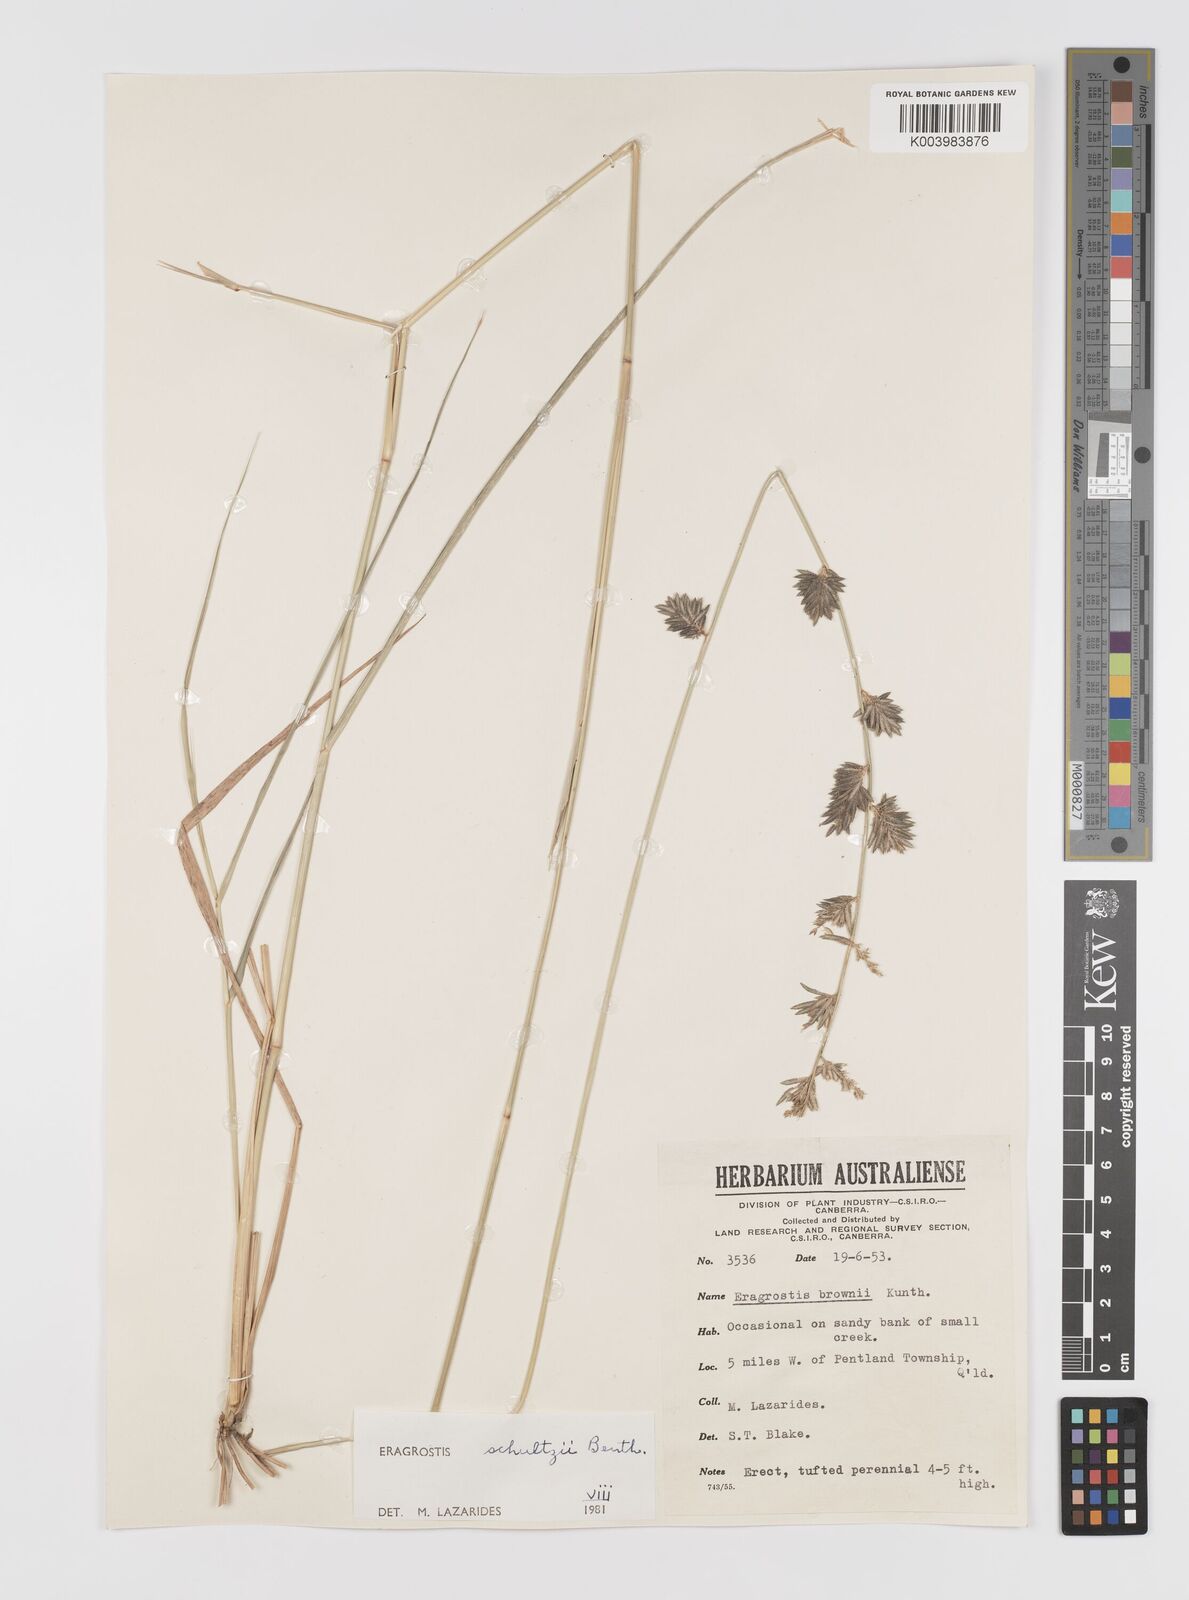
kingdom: Plantae
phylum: Tracheophyta
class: Liliopsida
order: Poales
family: Poaceae
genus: Eragrostis
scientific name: Eragrostis schultzii
